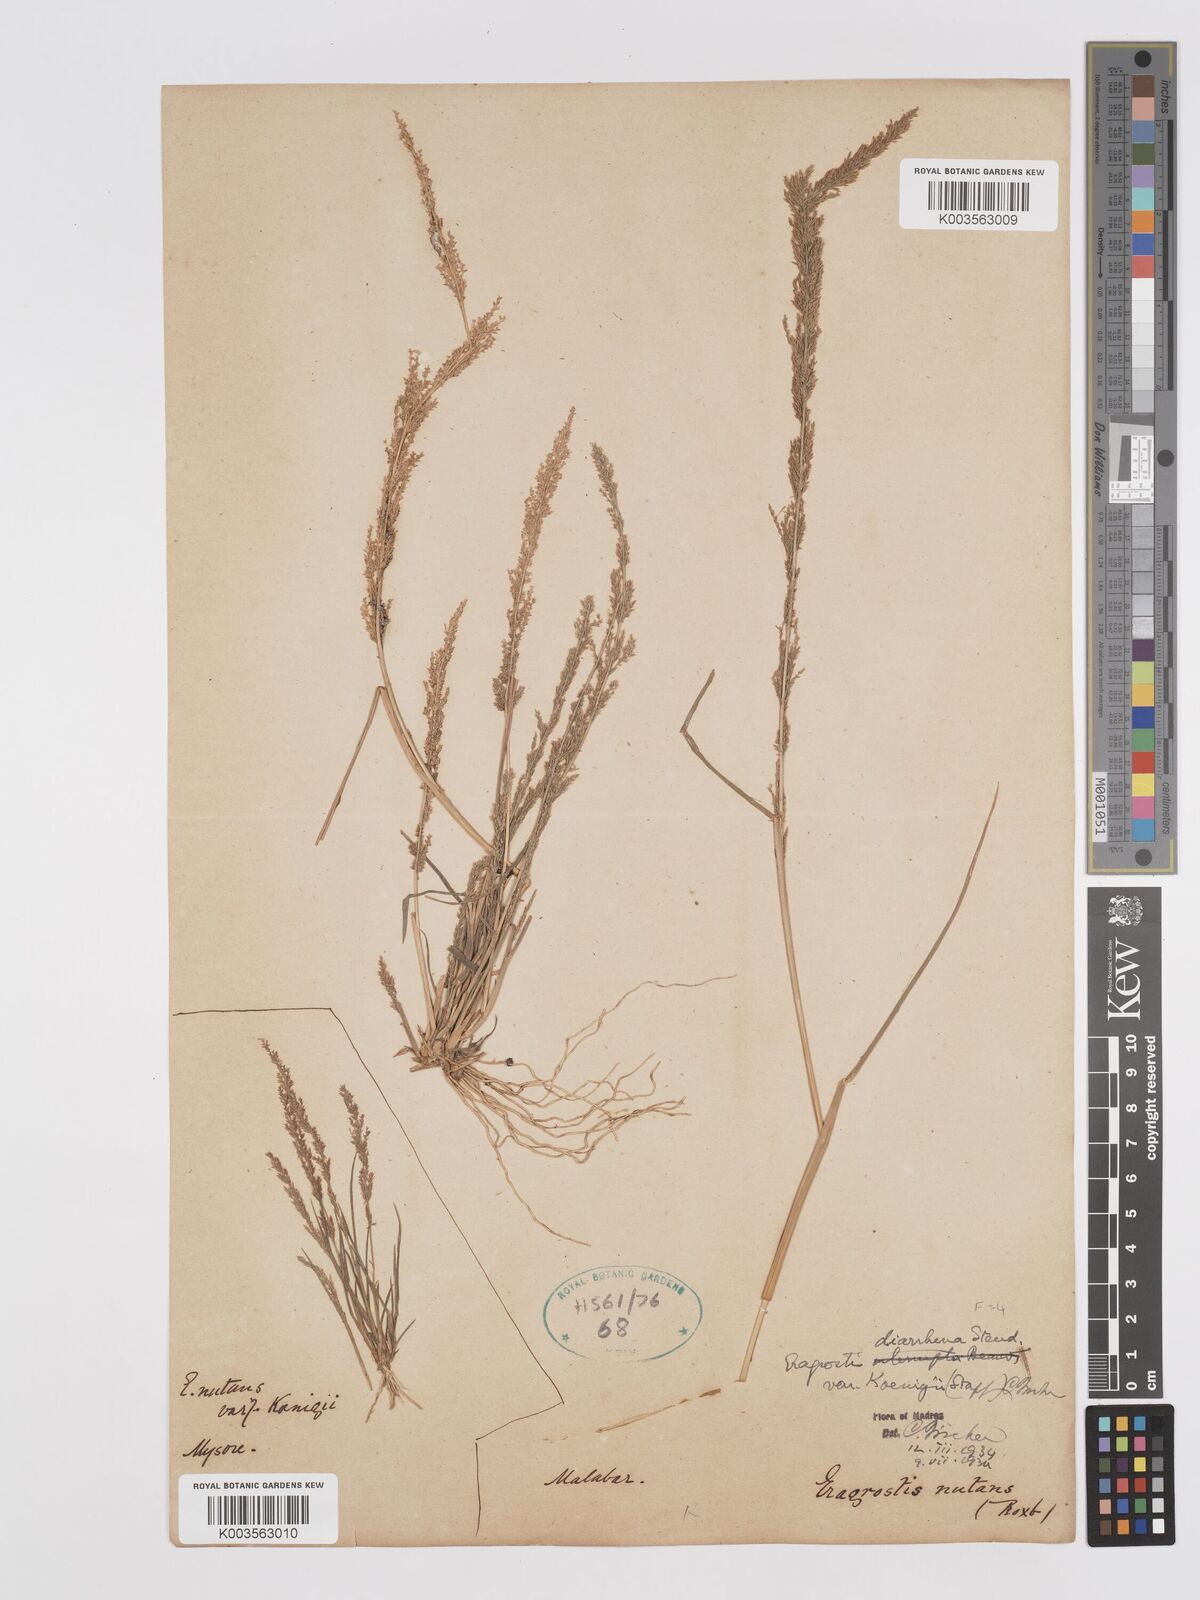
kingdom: Plantae
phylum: Tracheophyta
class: Liliopsida
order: Poales
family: Poaceae
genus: Eragrostis
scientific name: Eragrostis japonica
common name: Pond lovegrass
